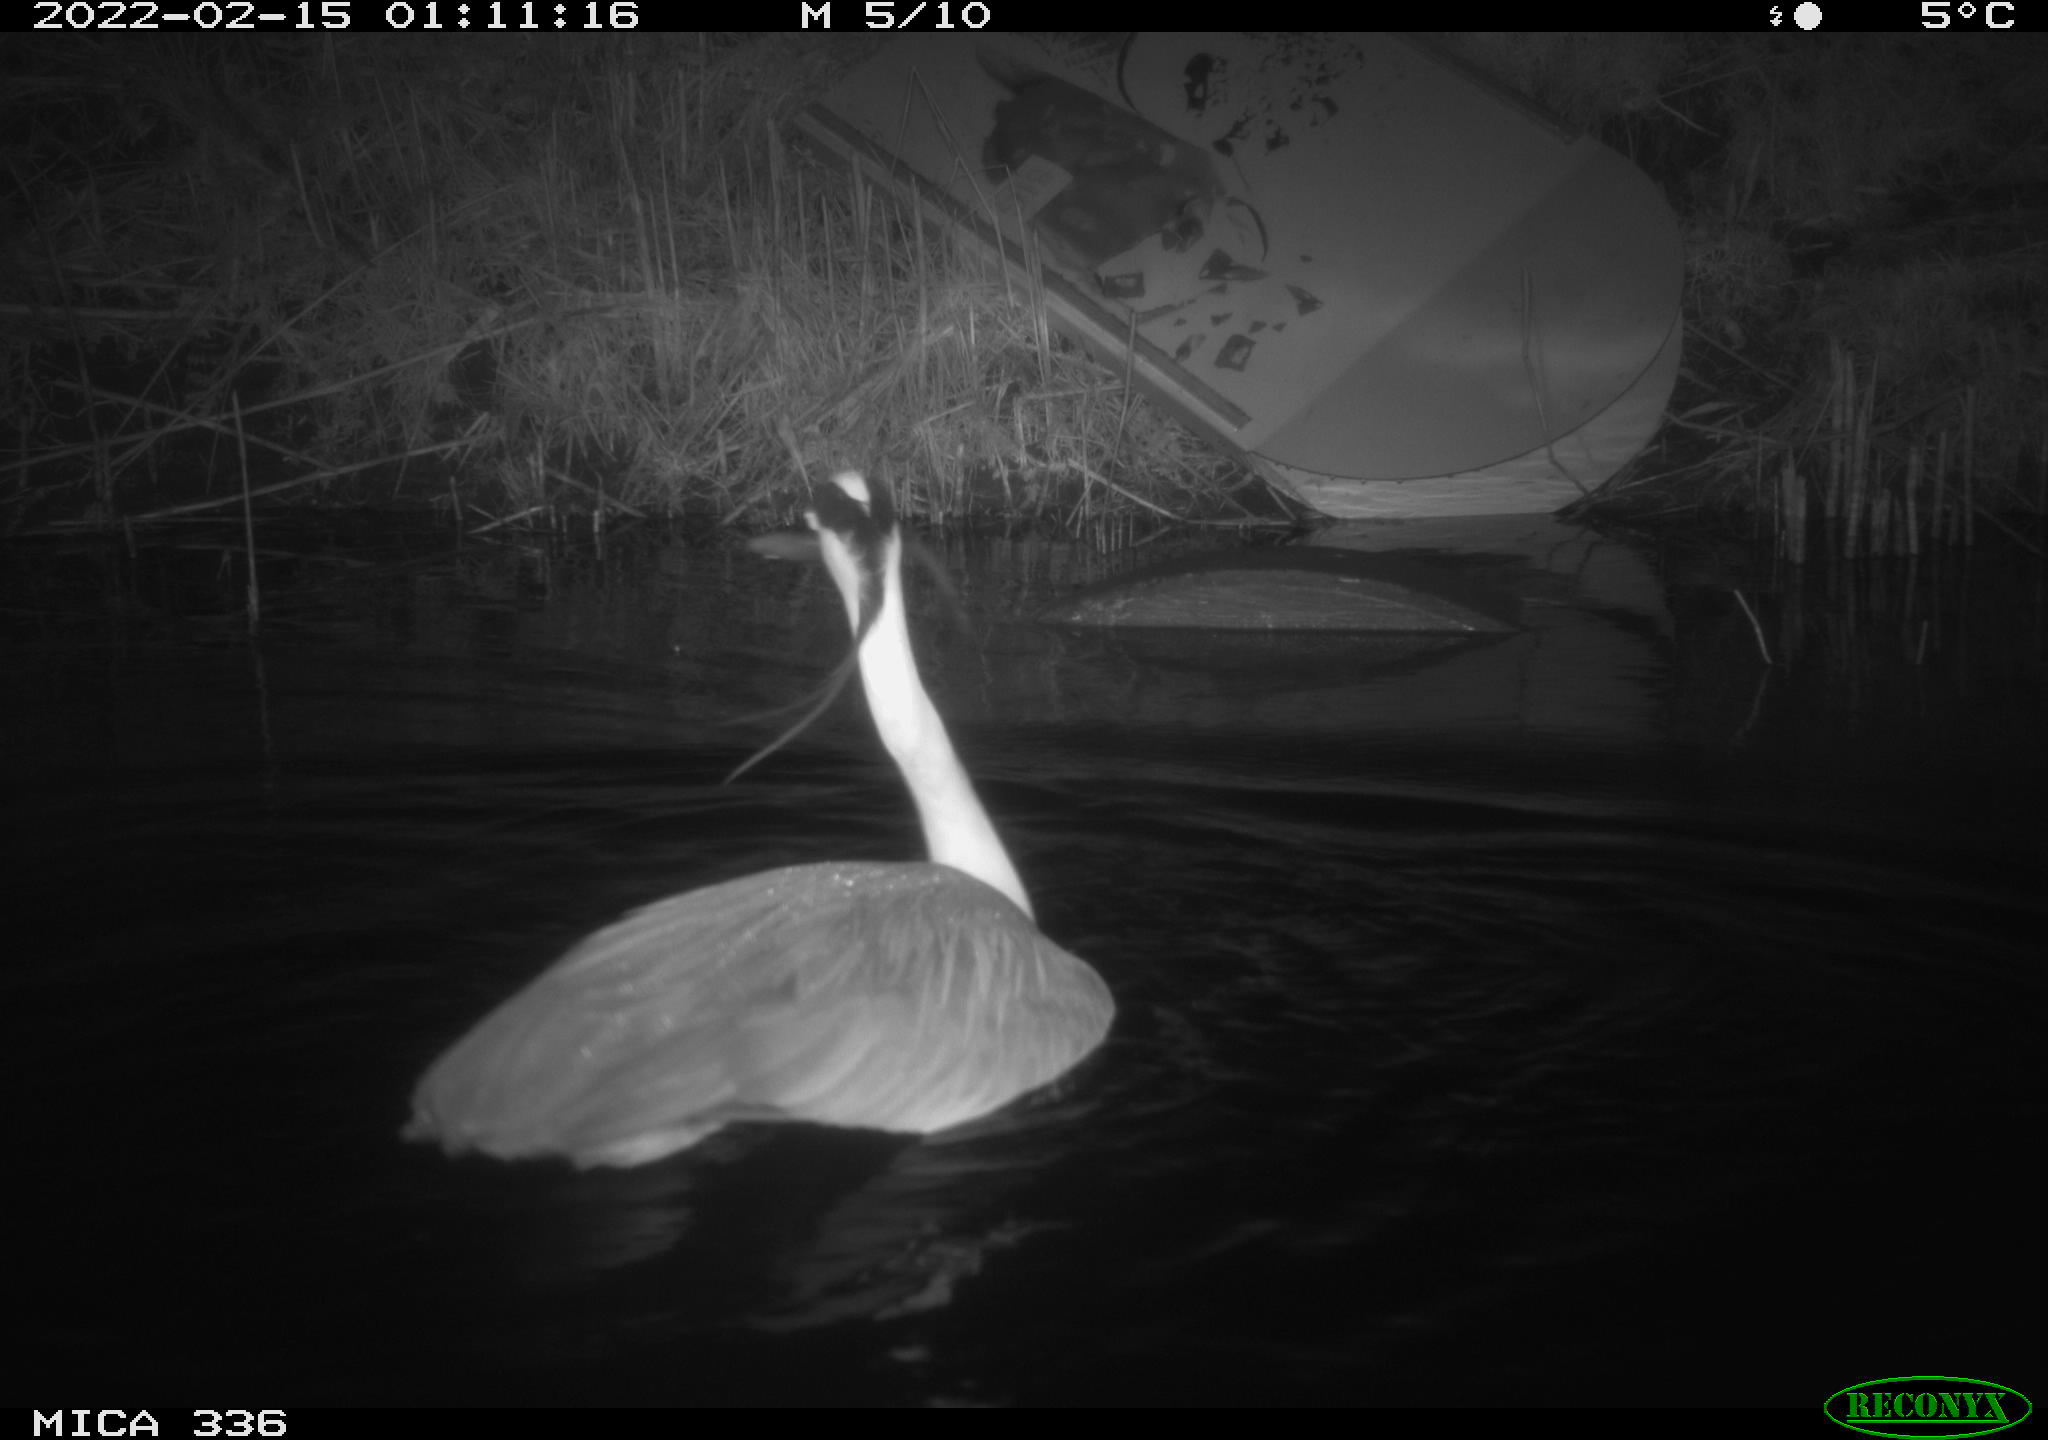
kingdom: Animalia
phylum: Chordata
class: Aves
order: Pelecaniformes
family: Ardeidae
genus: Ardea
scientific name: Ardea cinerea
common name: Grey heron
